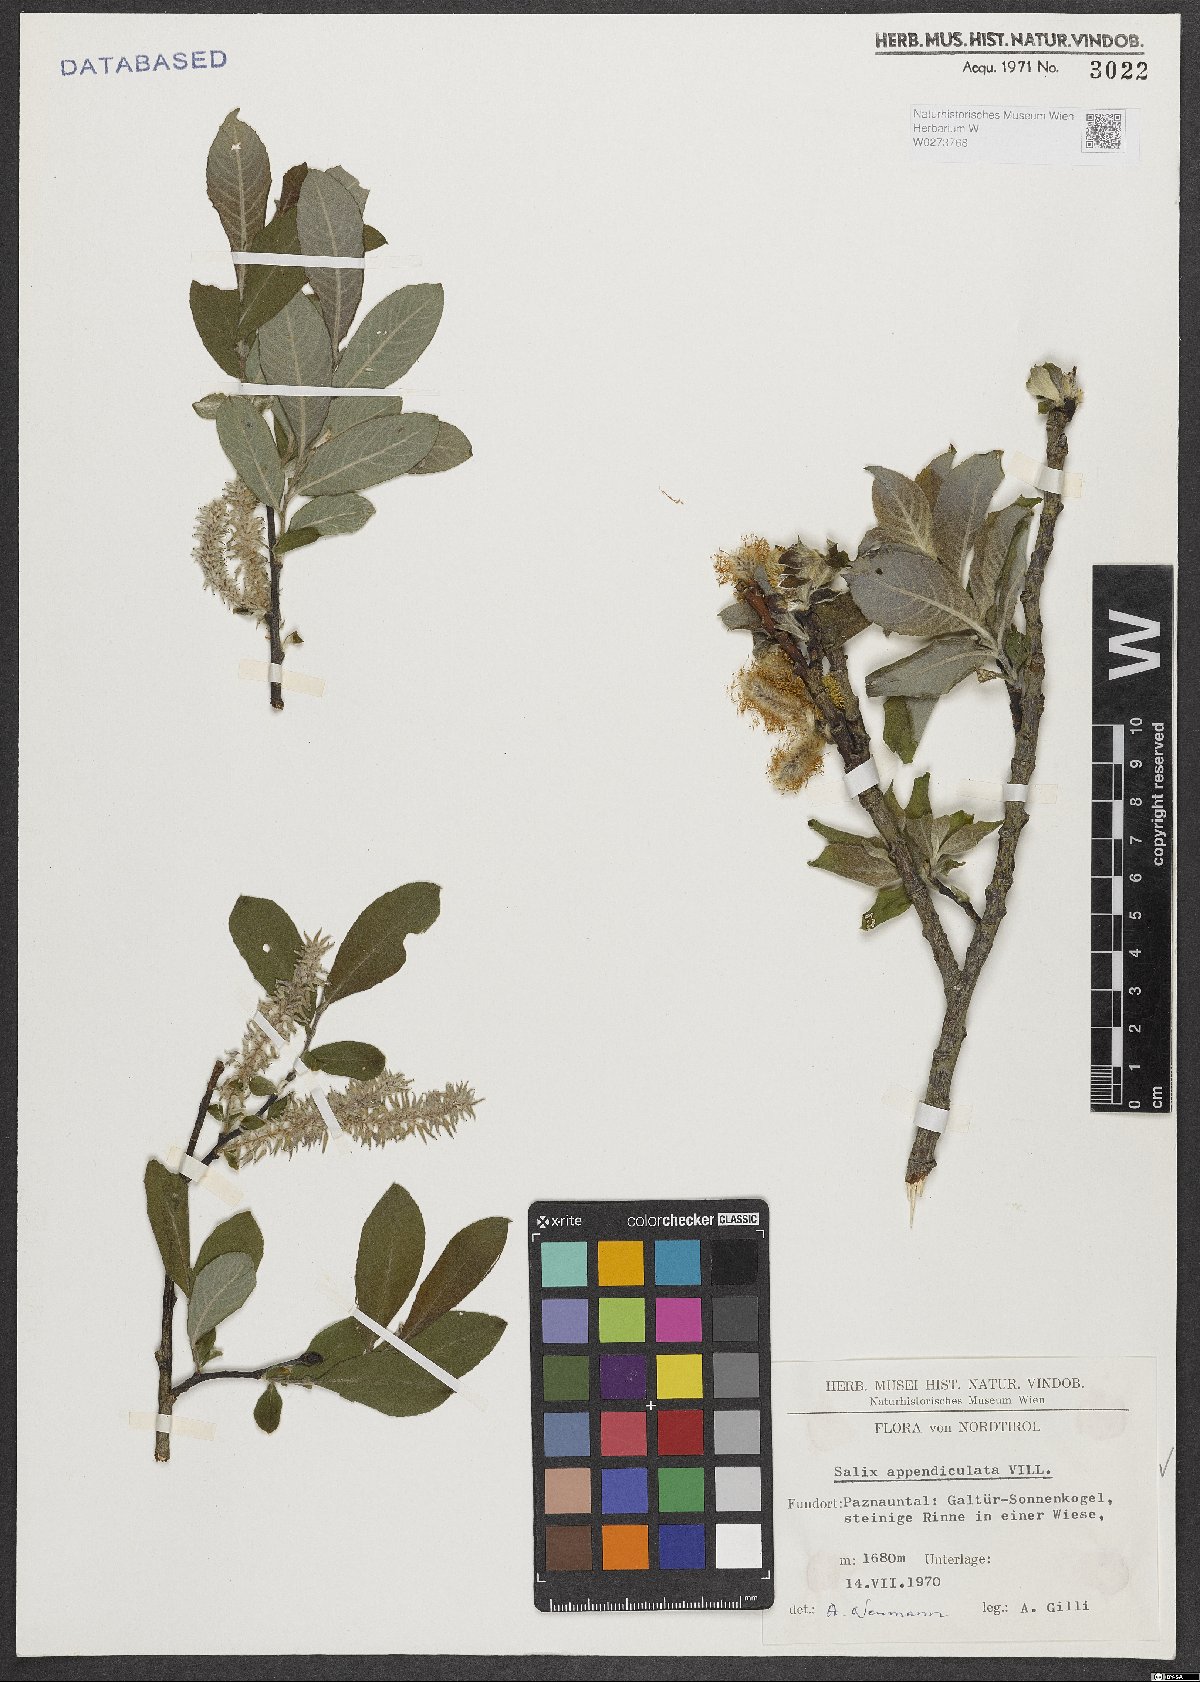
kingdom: Plantae
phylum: Tracheophyta
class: Magnoliopsida
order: Malpighiales
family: Salicaceae
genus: Salix
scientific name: Salix appendiculata
